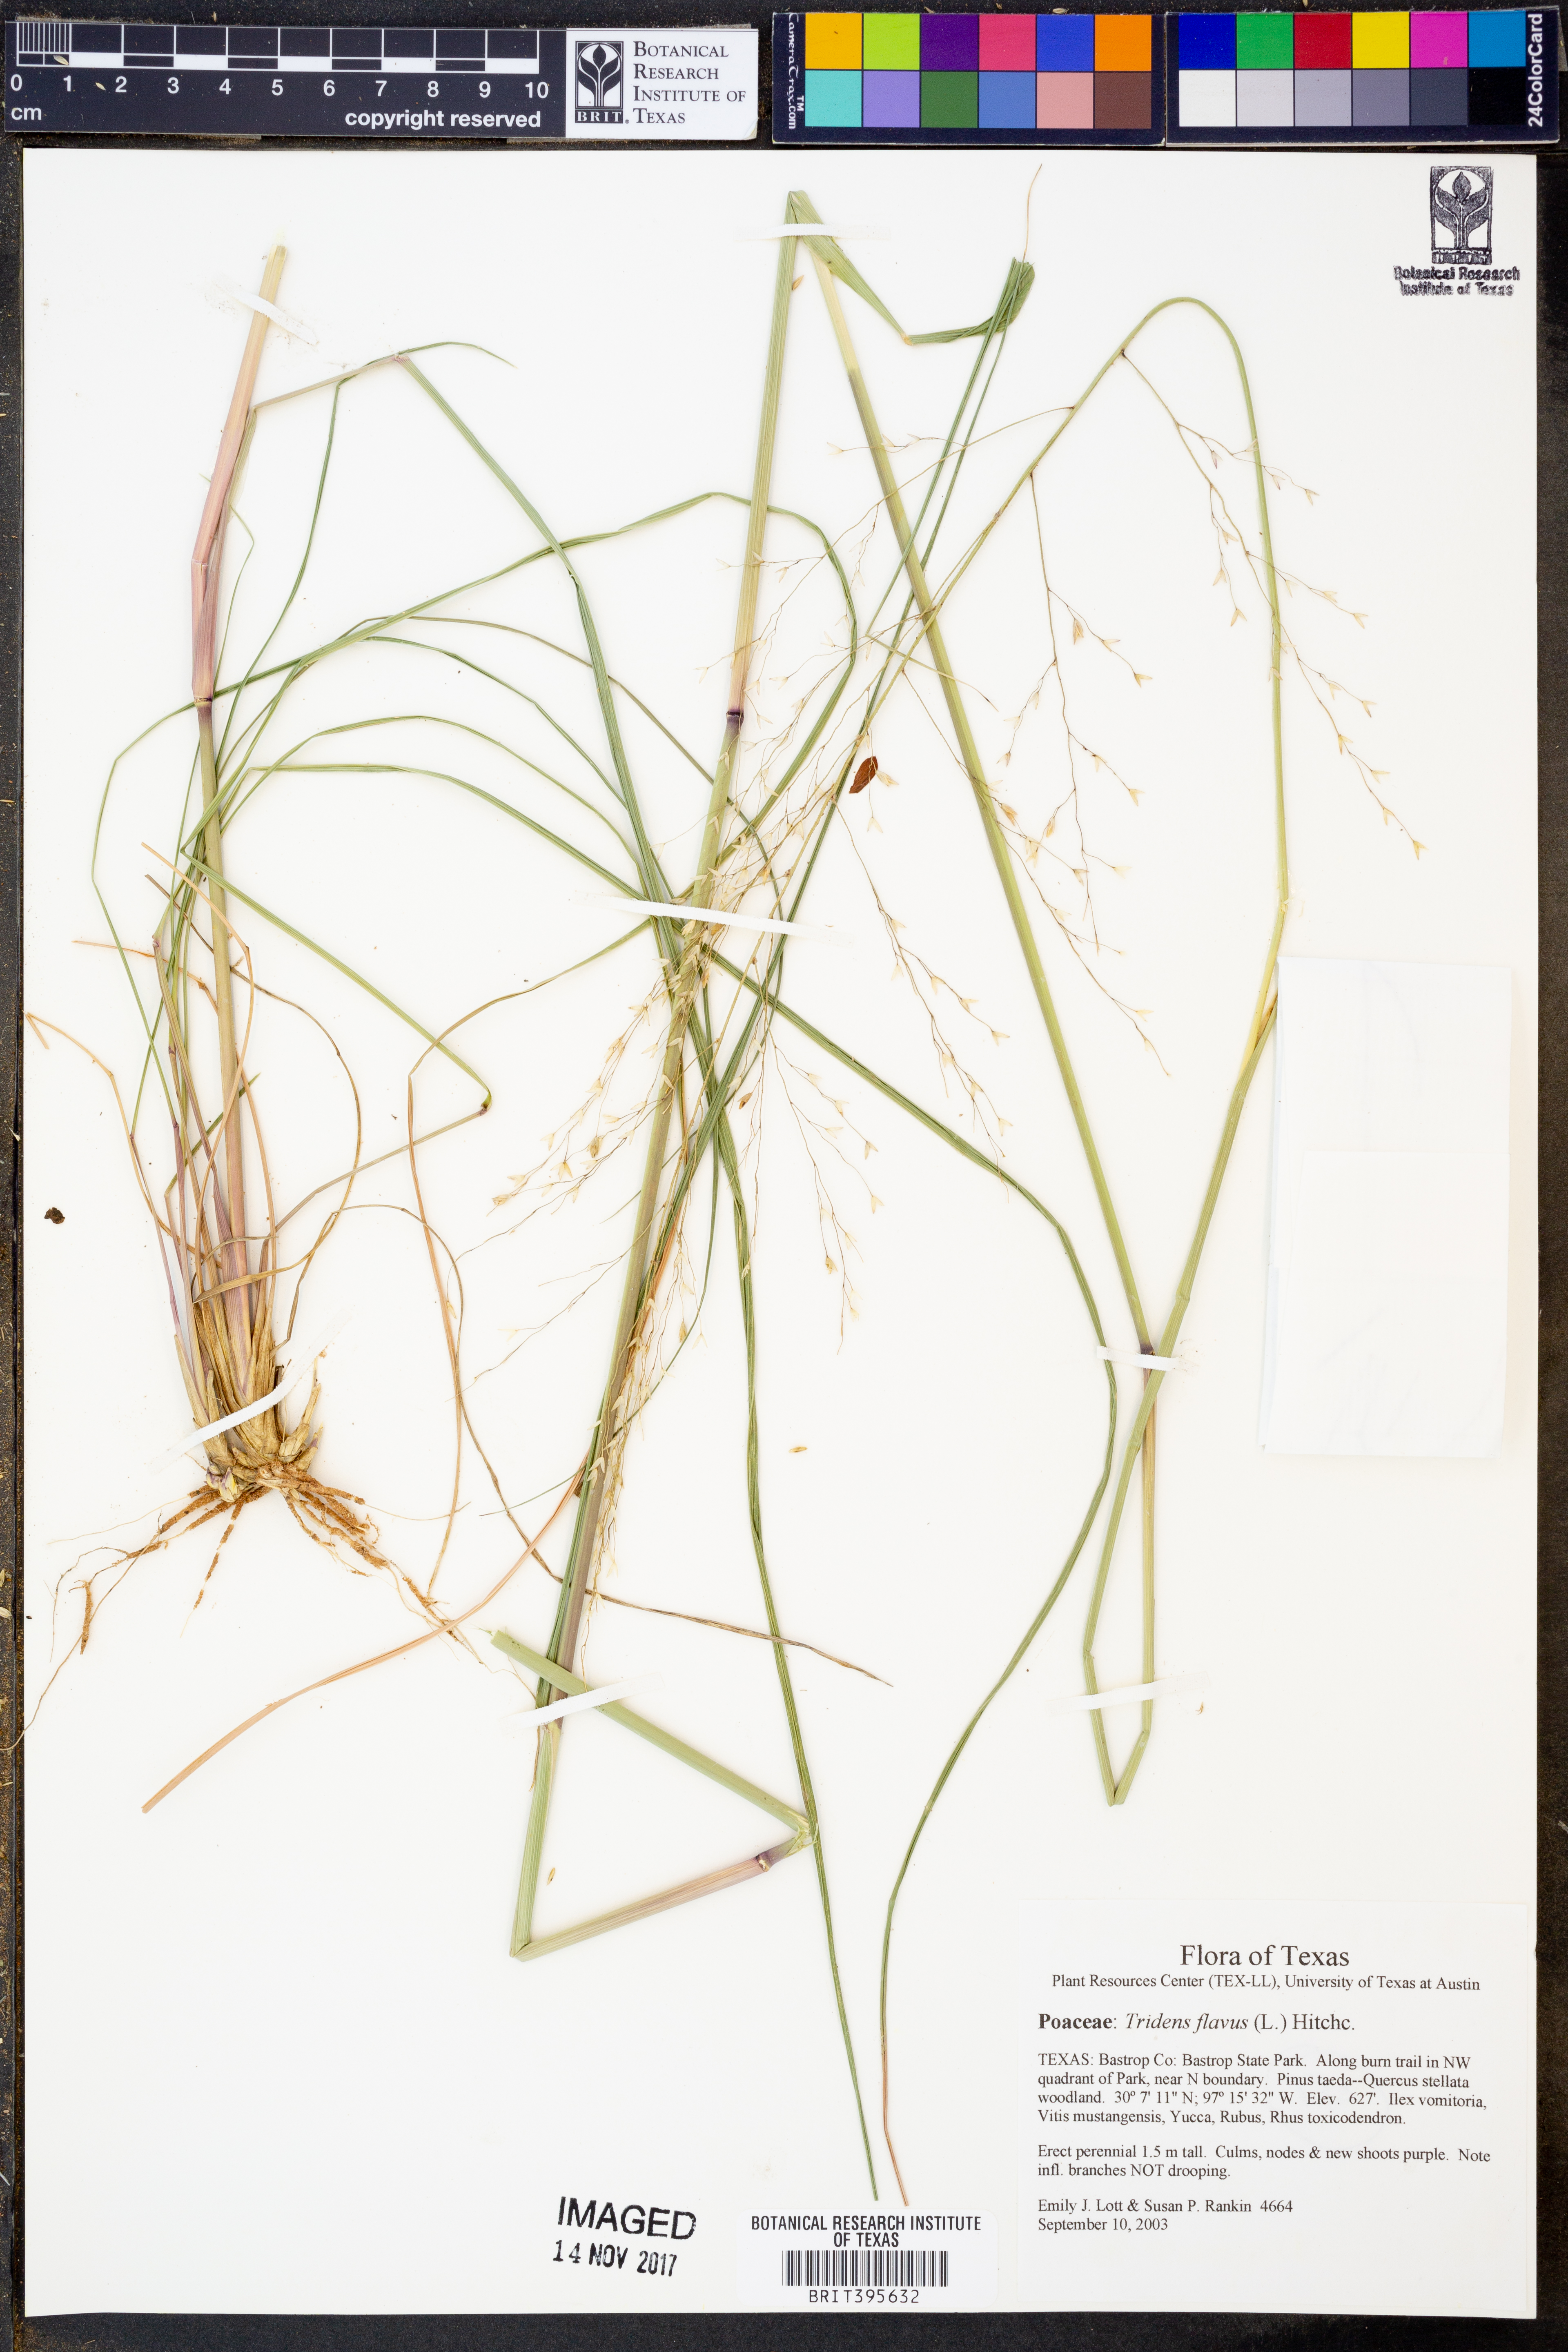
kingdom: Plantae
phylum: Tracheophyta
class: Liliopsida
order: Poales
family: Poaceae
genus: Tridens
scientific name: Tridens flavus
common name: Purpletop
